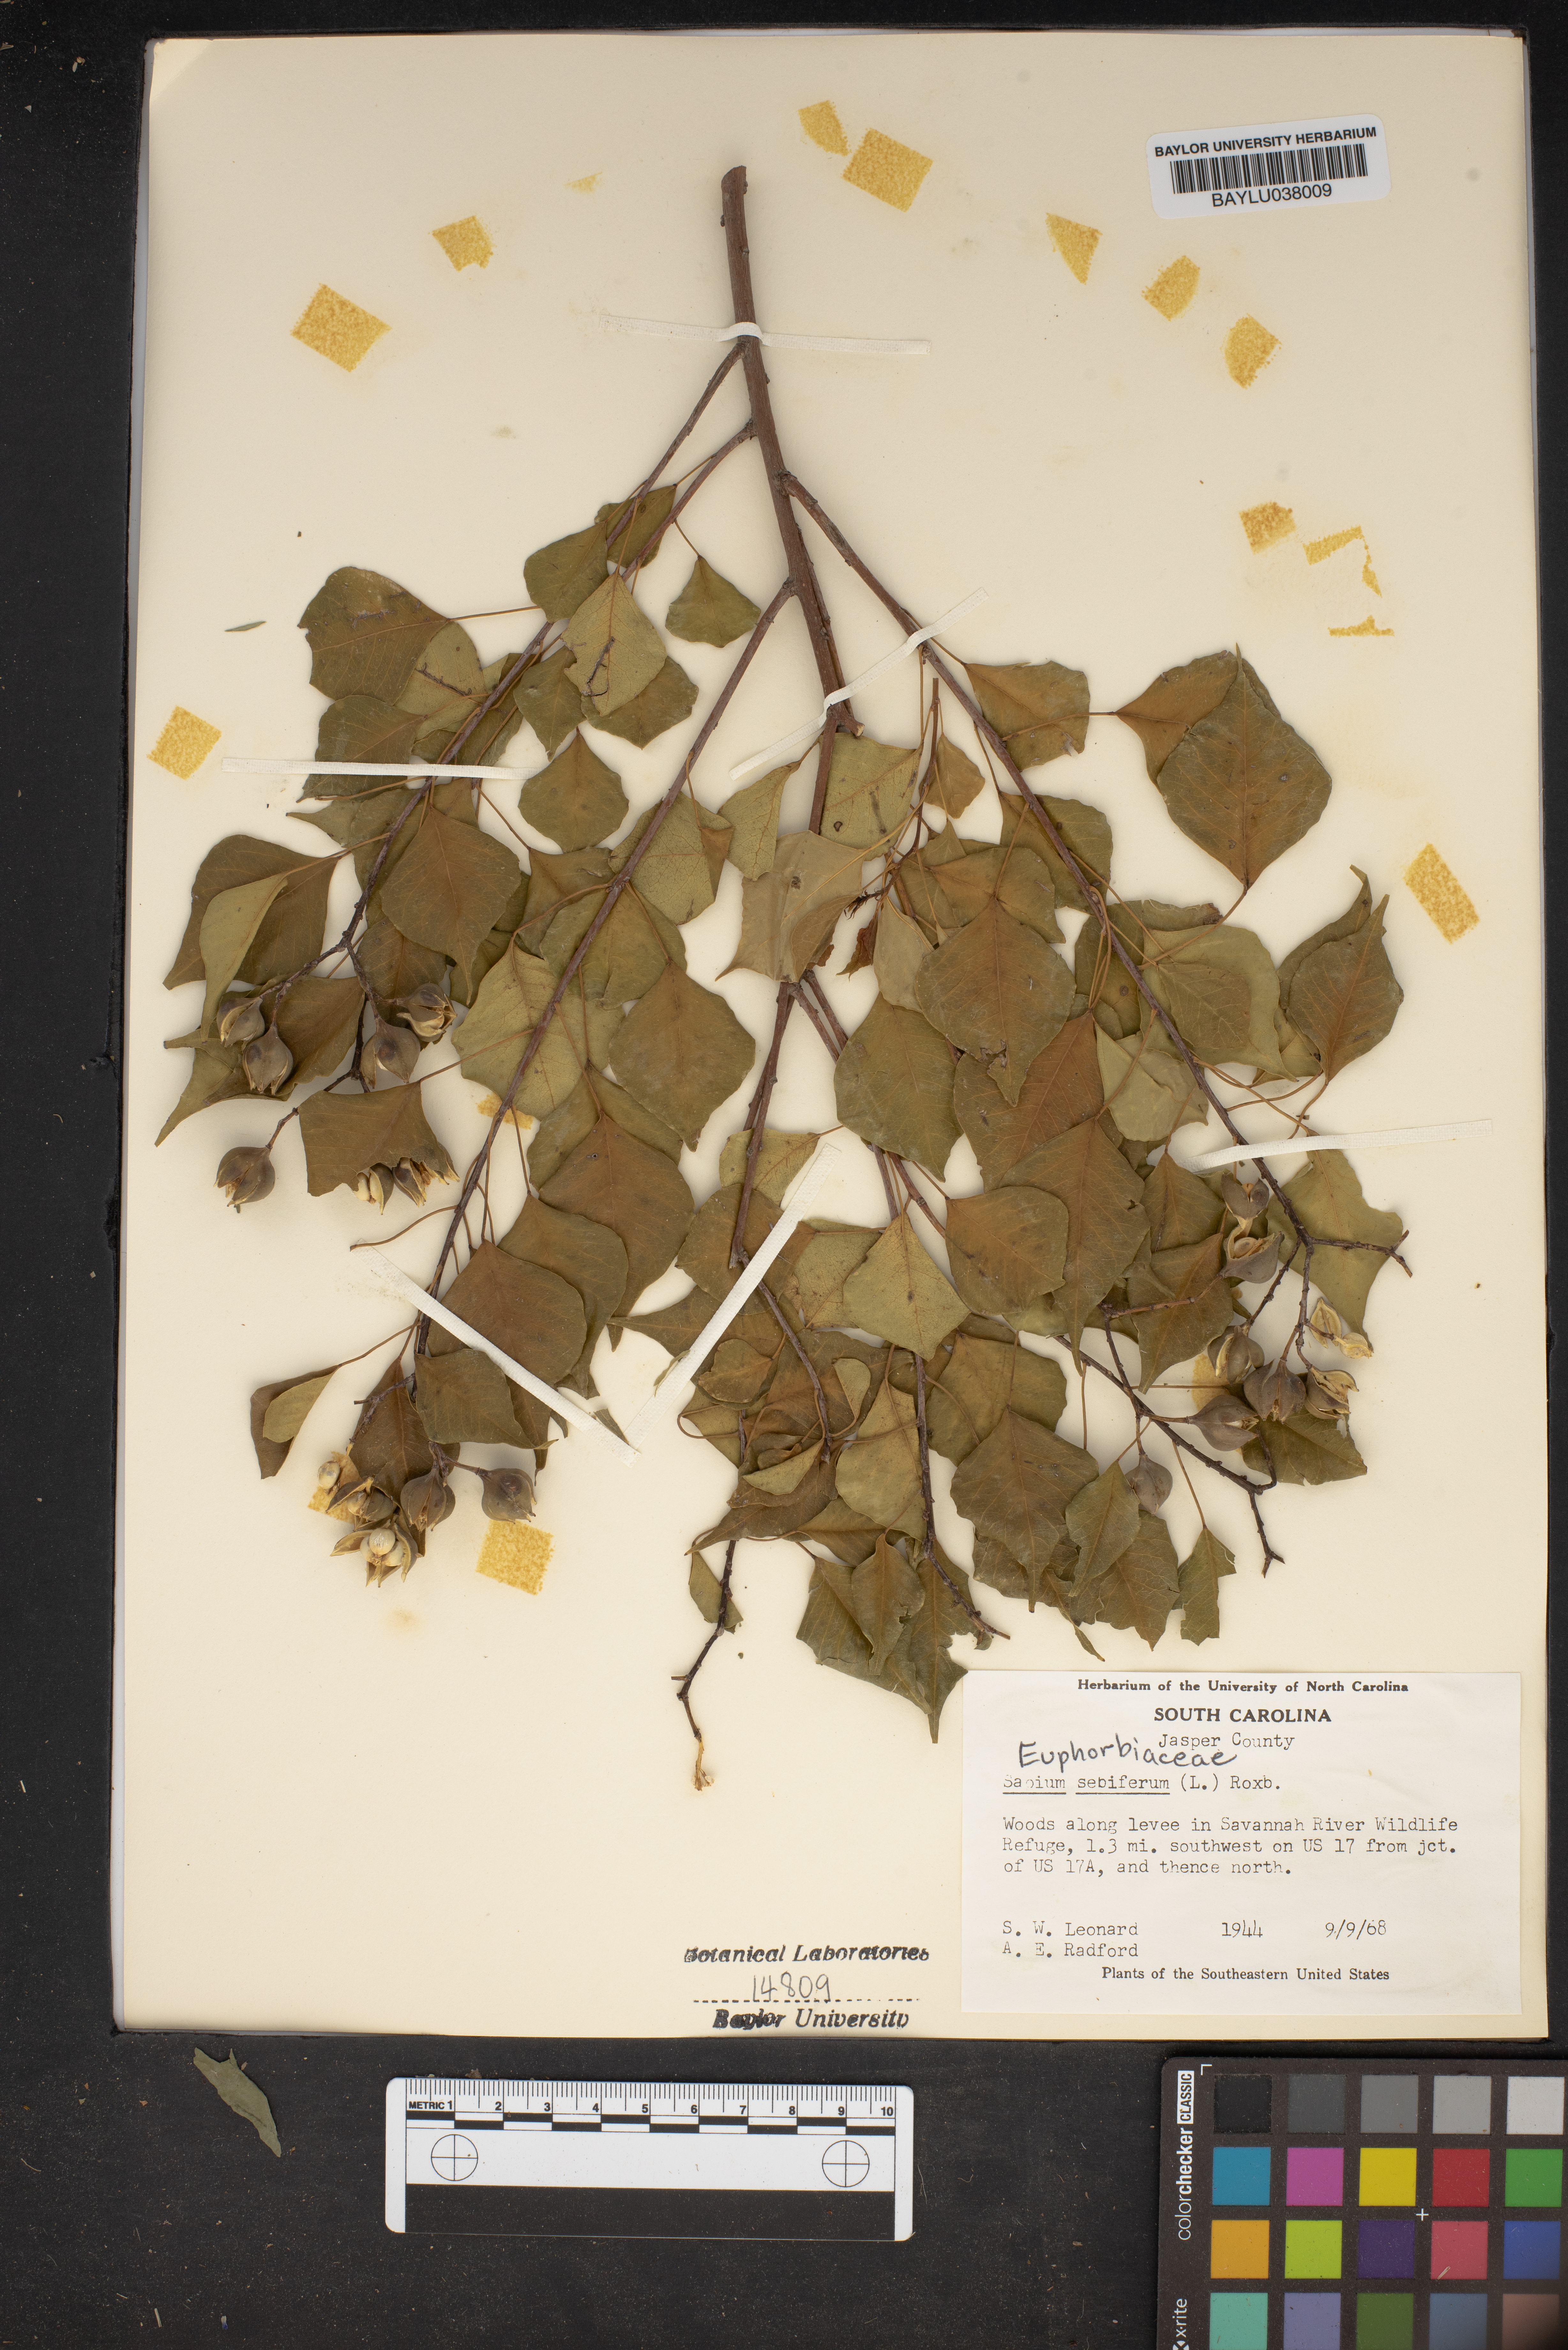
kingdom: Plantae
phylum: Tracheophyta
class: Magnoliopsida
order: Malpighiales
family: Euphorbiaceae
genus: Triadica
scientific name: Triadica sebifera
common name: Chinese tallow
